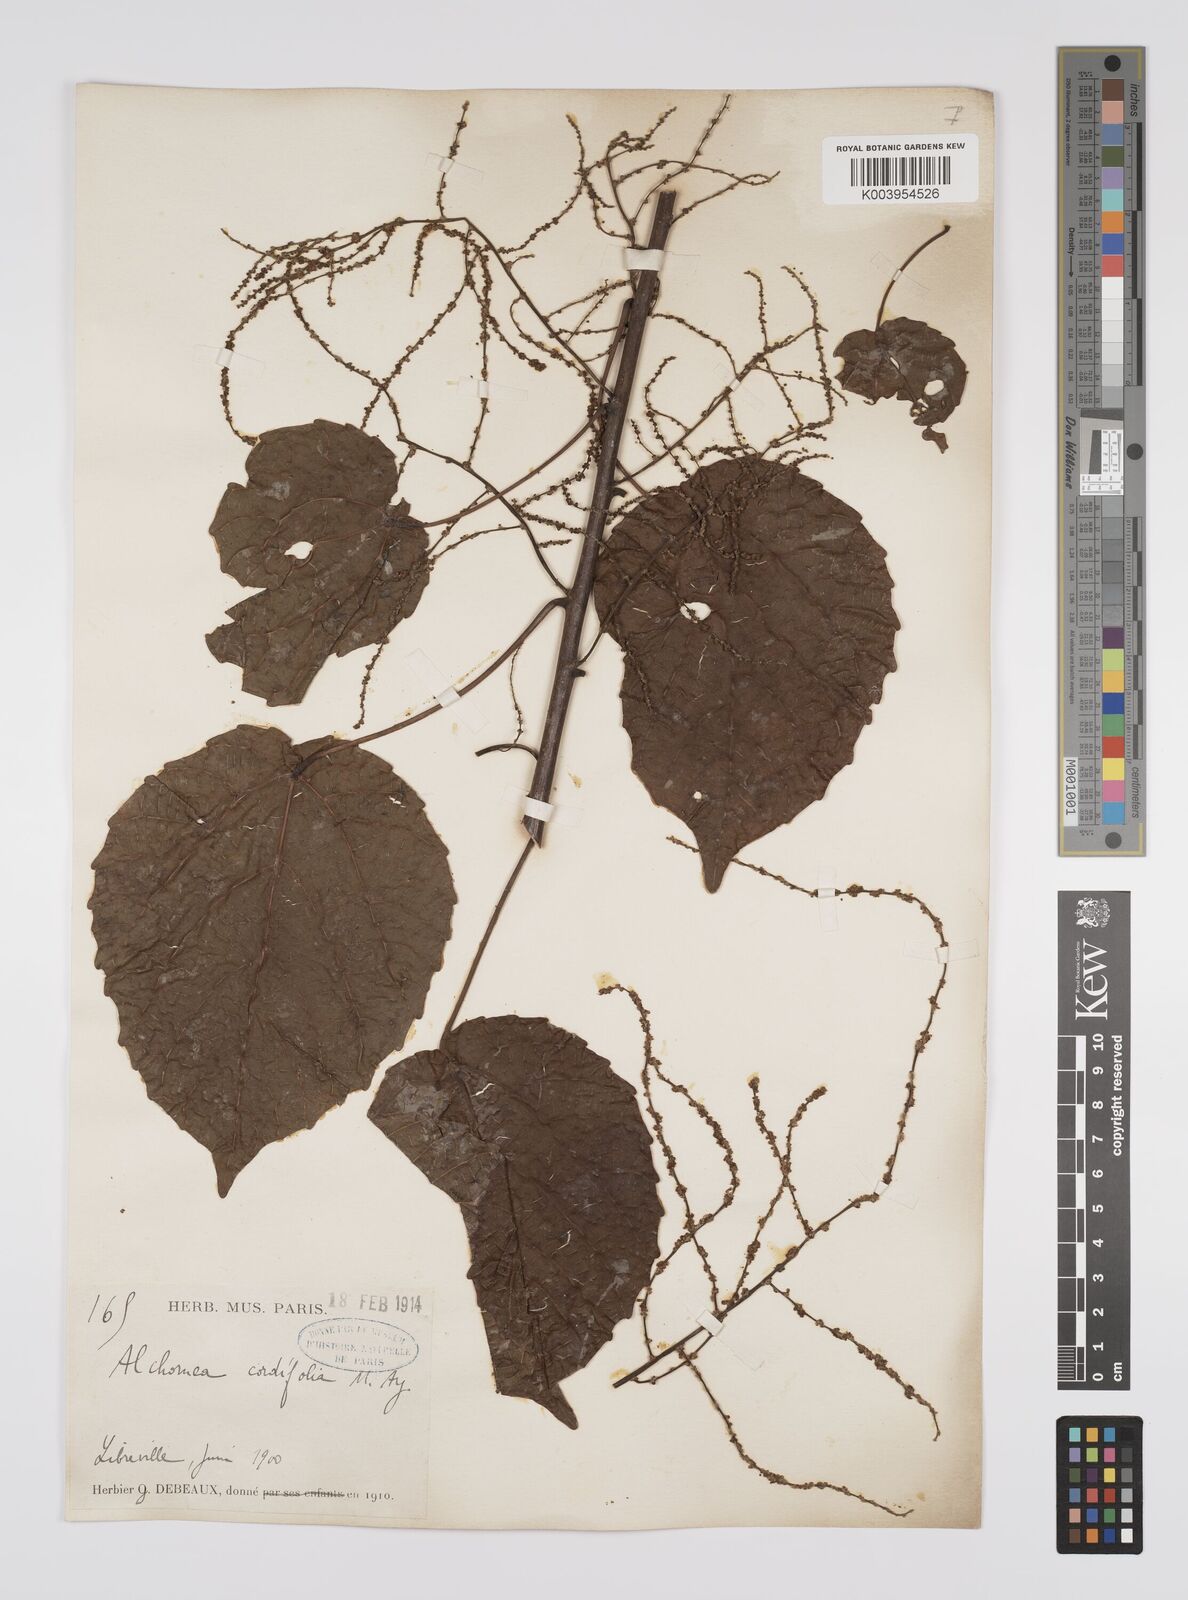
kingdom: Plantae
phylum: Tracheophyta
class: Magnoliopsida
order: Malpighiales
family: Euphorbiaceae
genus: Alchornea
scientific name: Alchornea cordifolia
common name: Christmasbush
